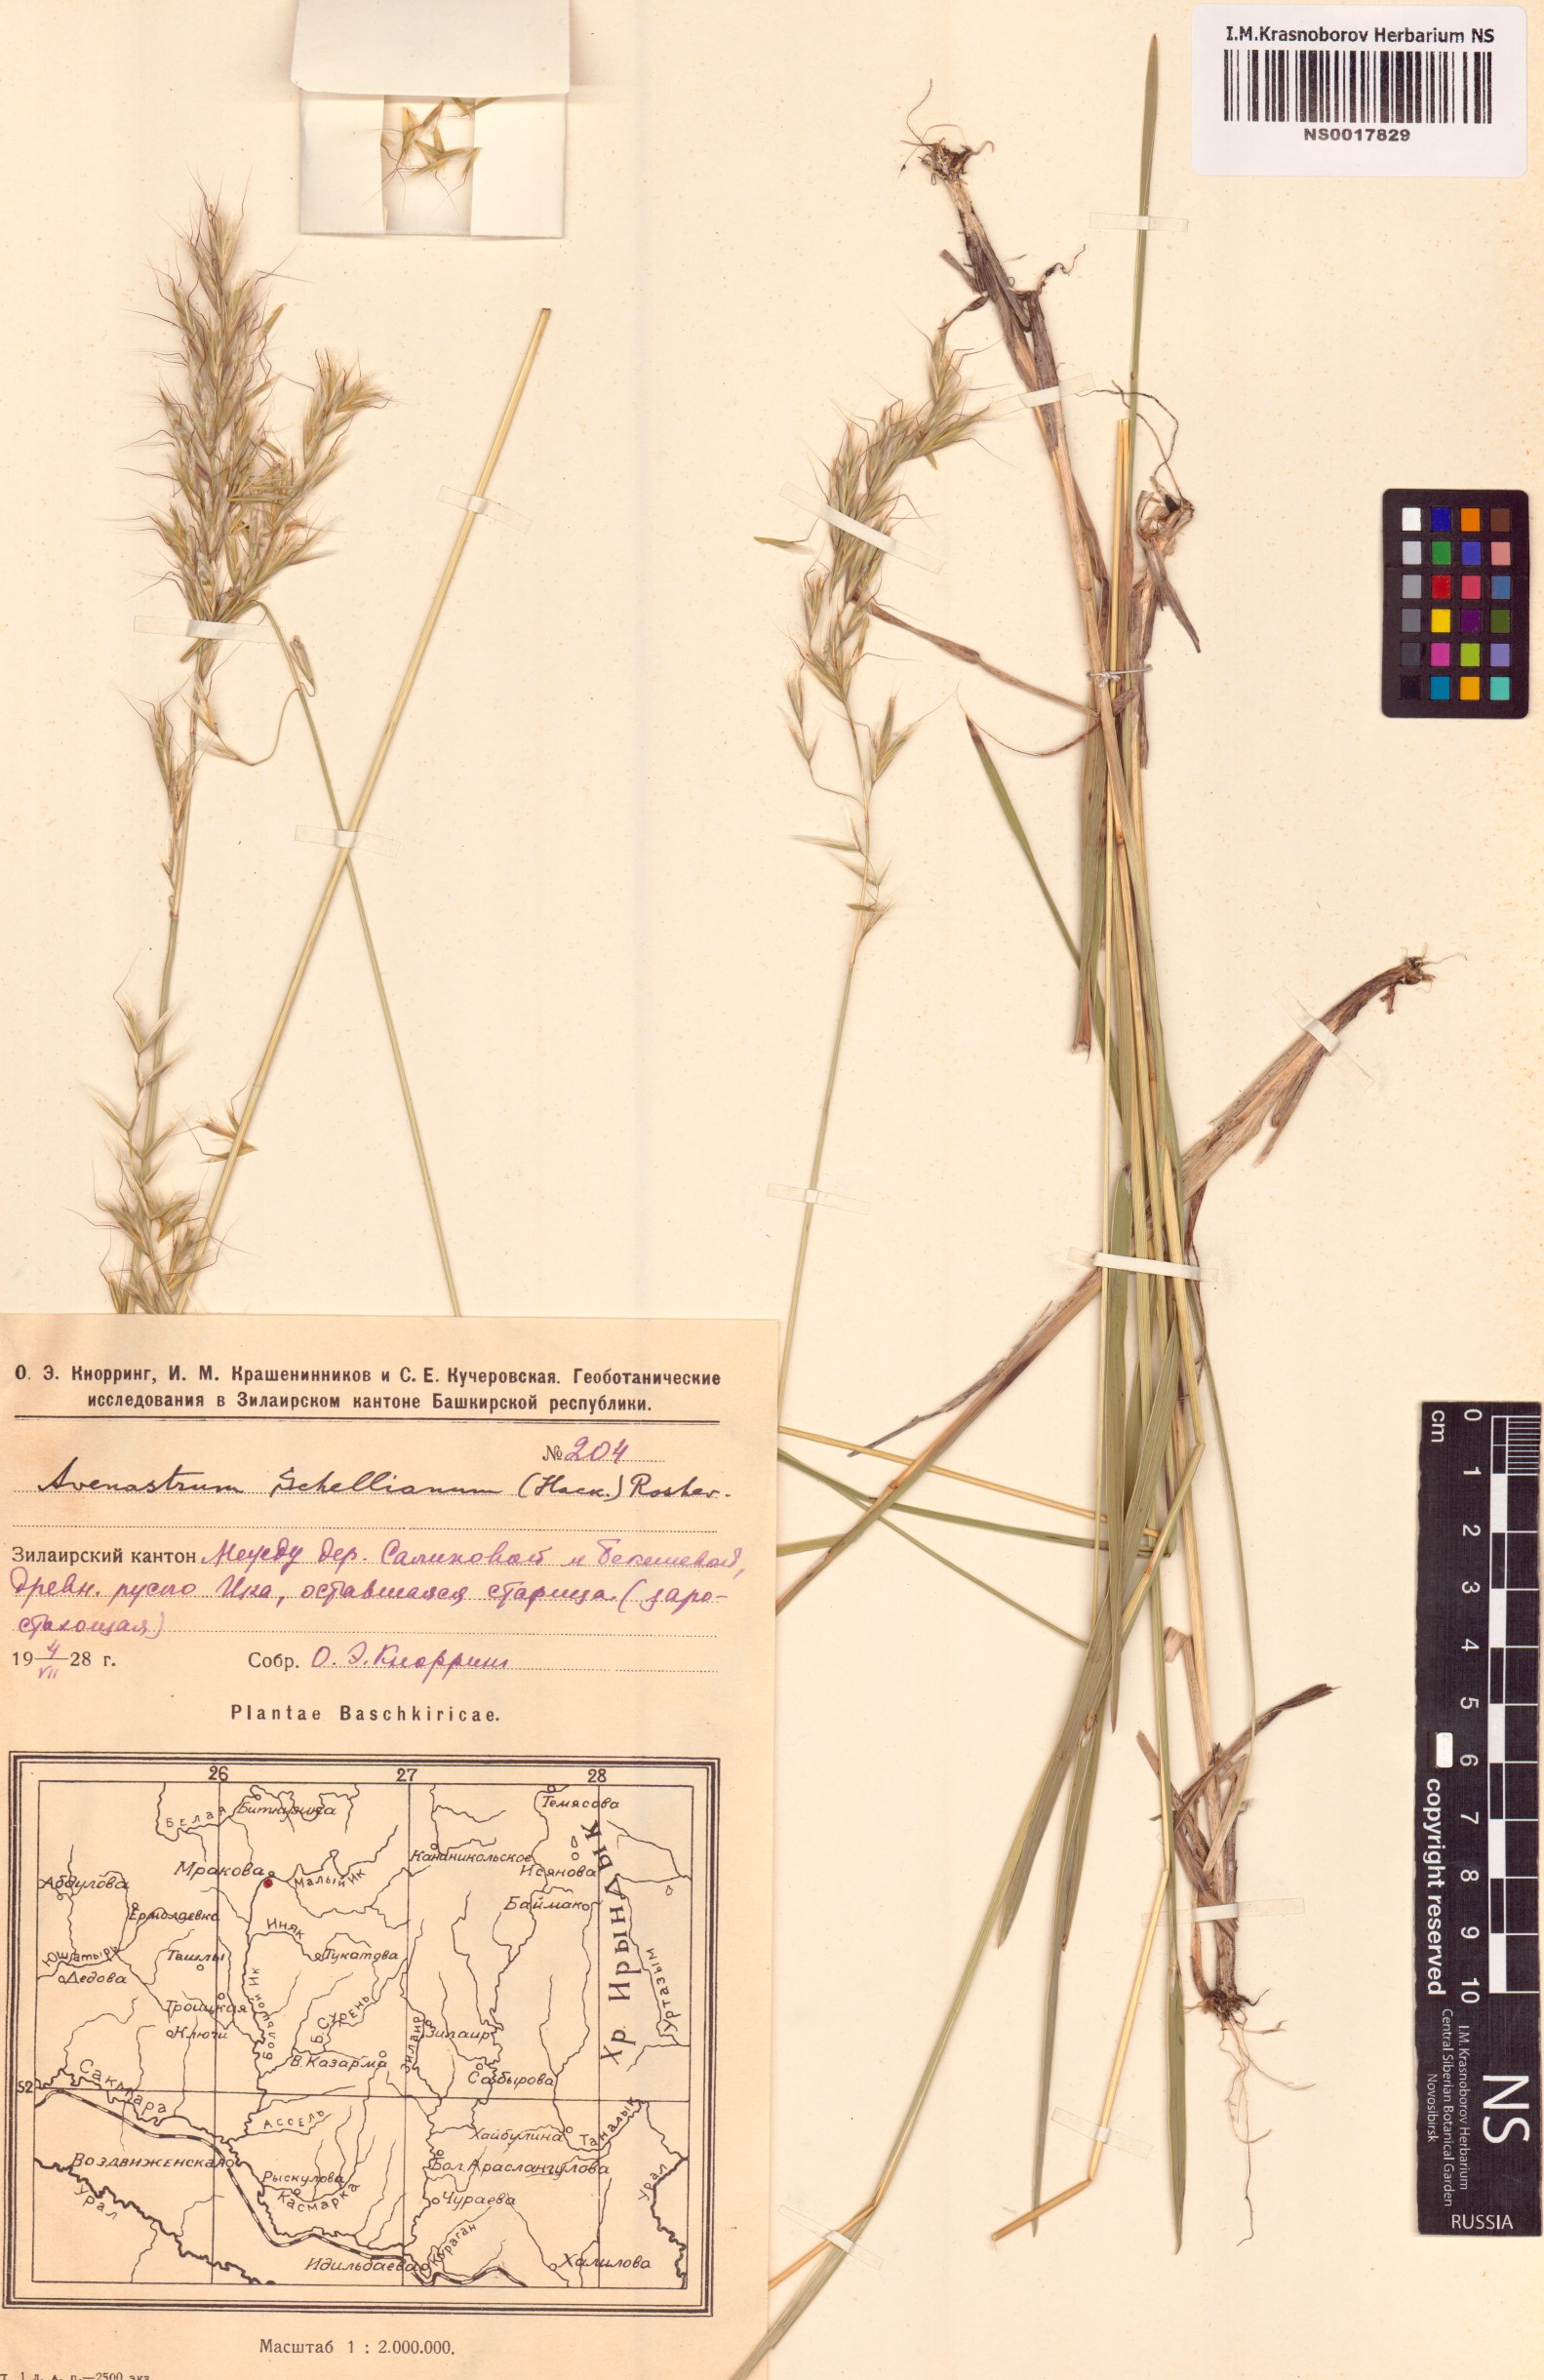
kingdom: Plantae
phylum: Tracheophyta
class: Liliopsida
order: Poales
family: Poaceae
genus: Helictochloa
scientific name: Helictochloa hookeri
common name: Hooker's alpine oatgrass
